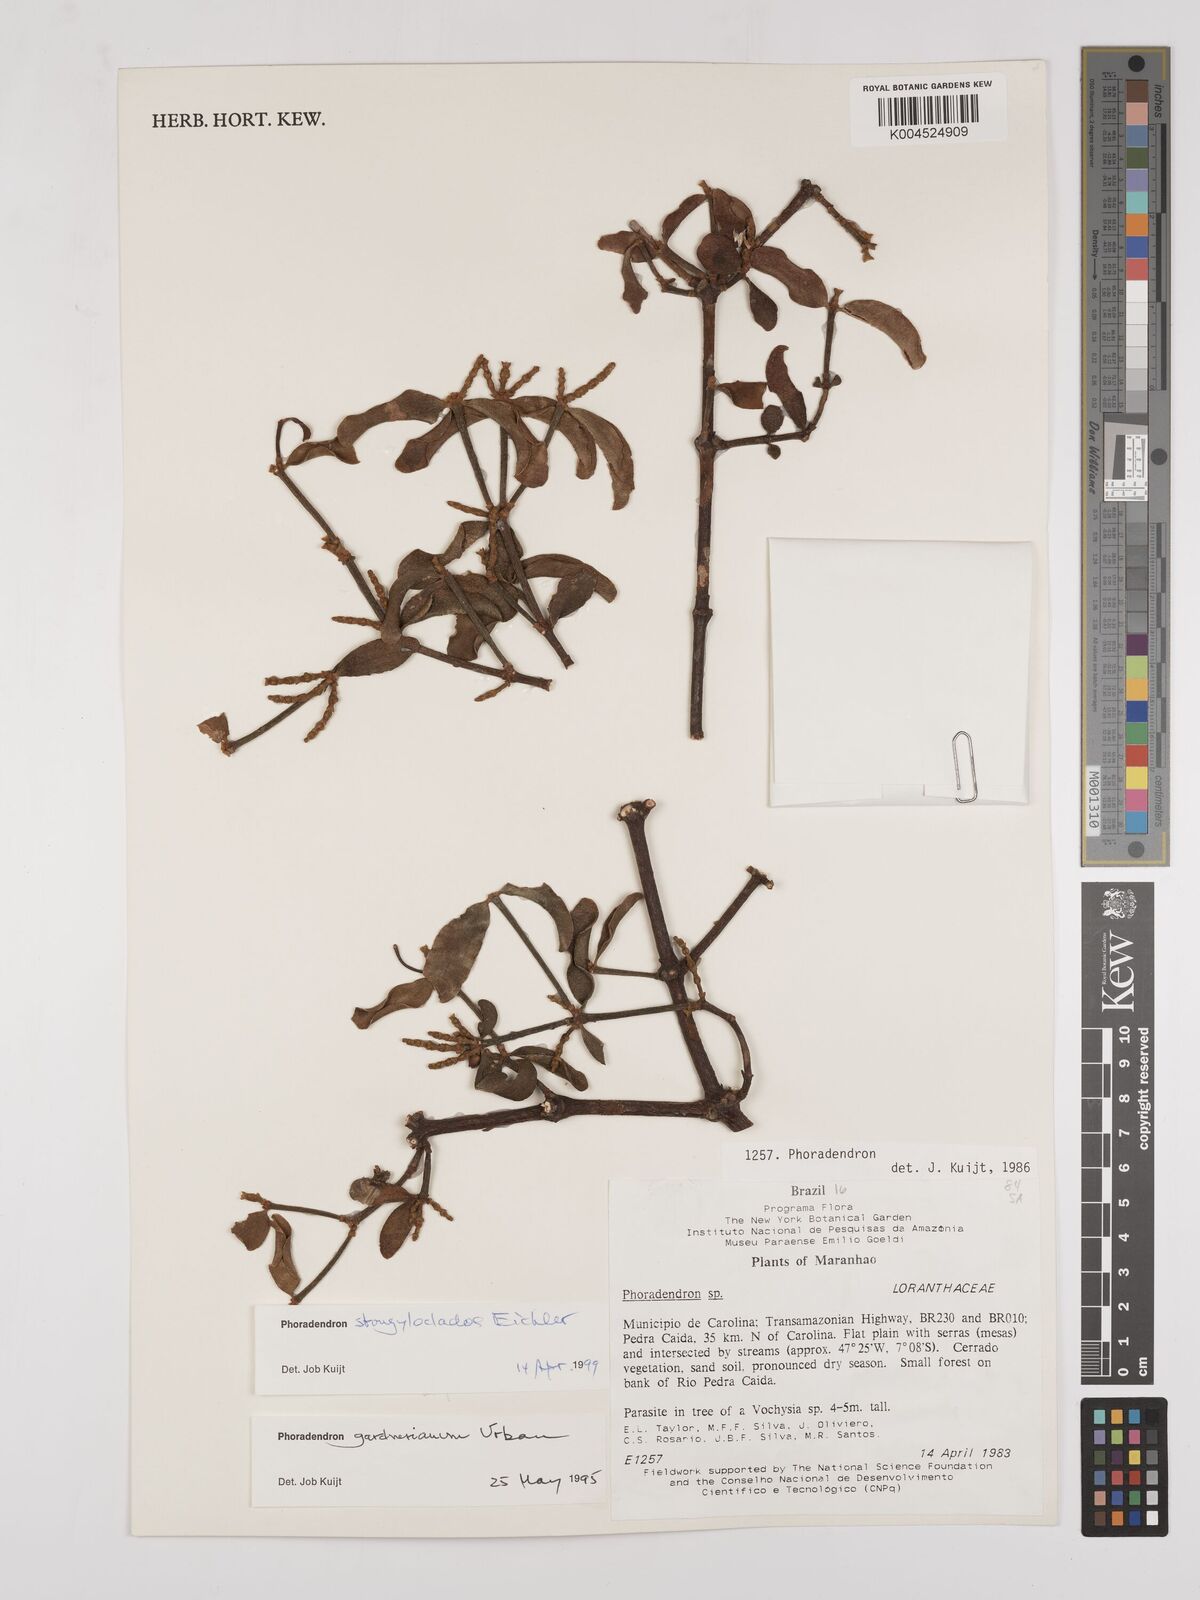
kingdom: Plantae
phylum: Tracheophyta
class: Magnoliopsida
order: Santalales
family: Viscaceae
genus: Phoradendron
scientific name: Phoradendron strongyloclados
